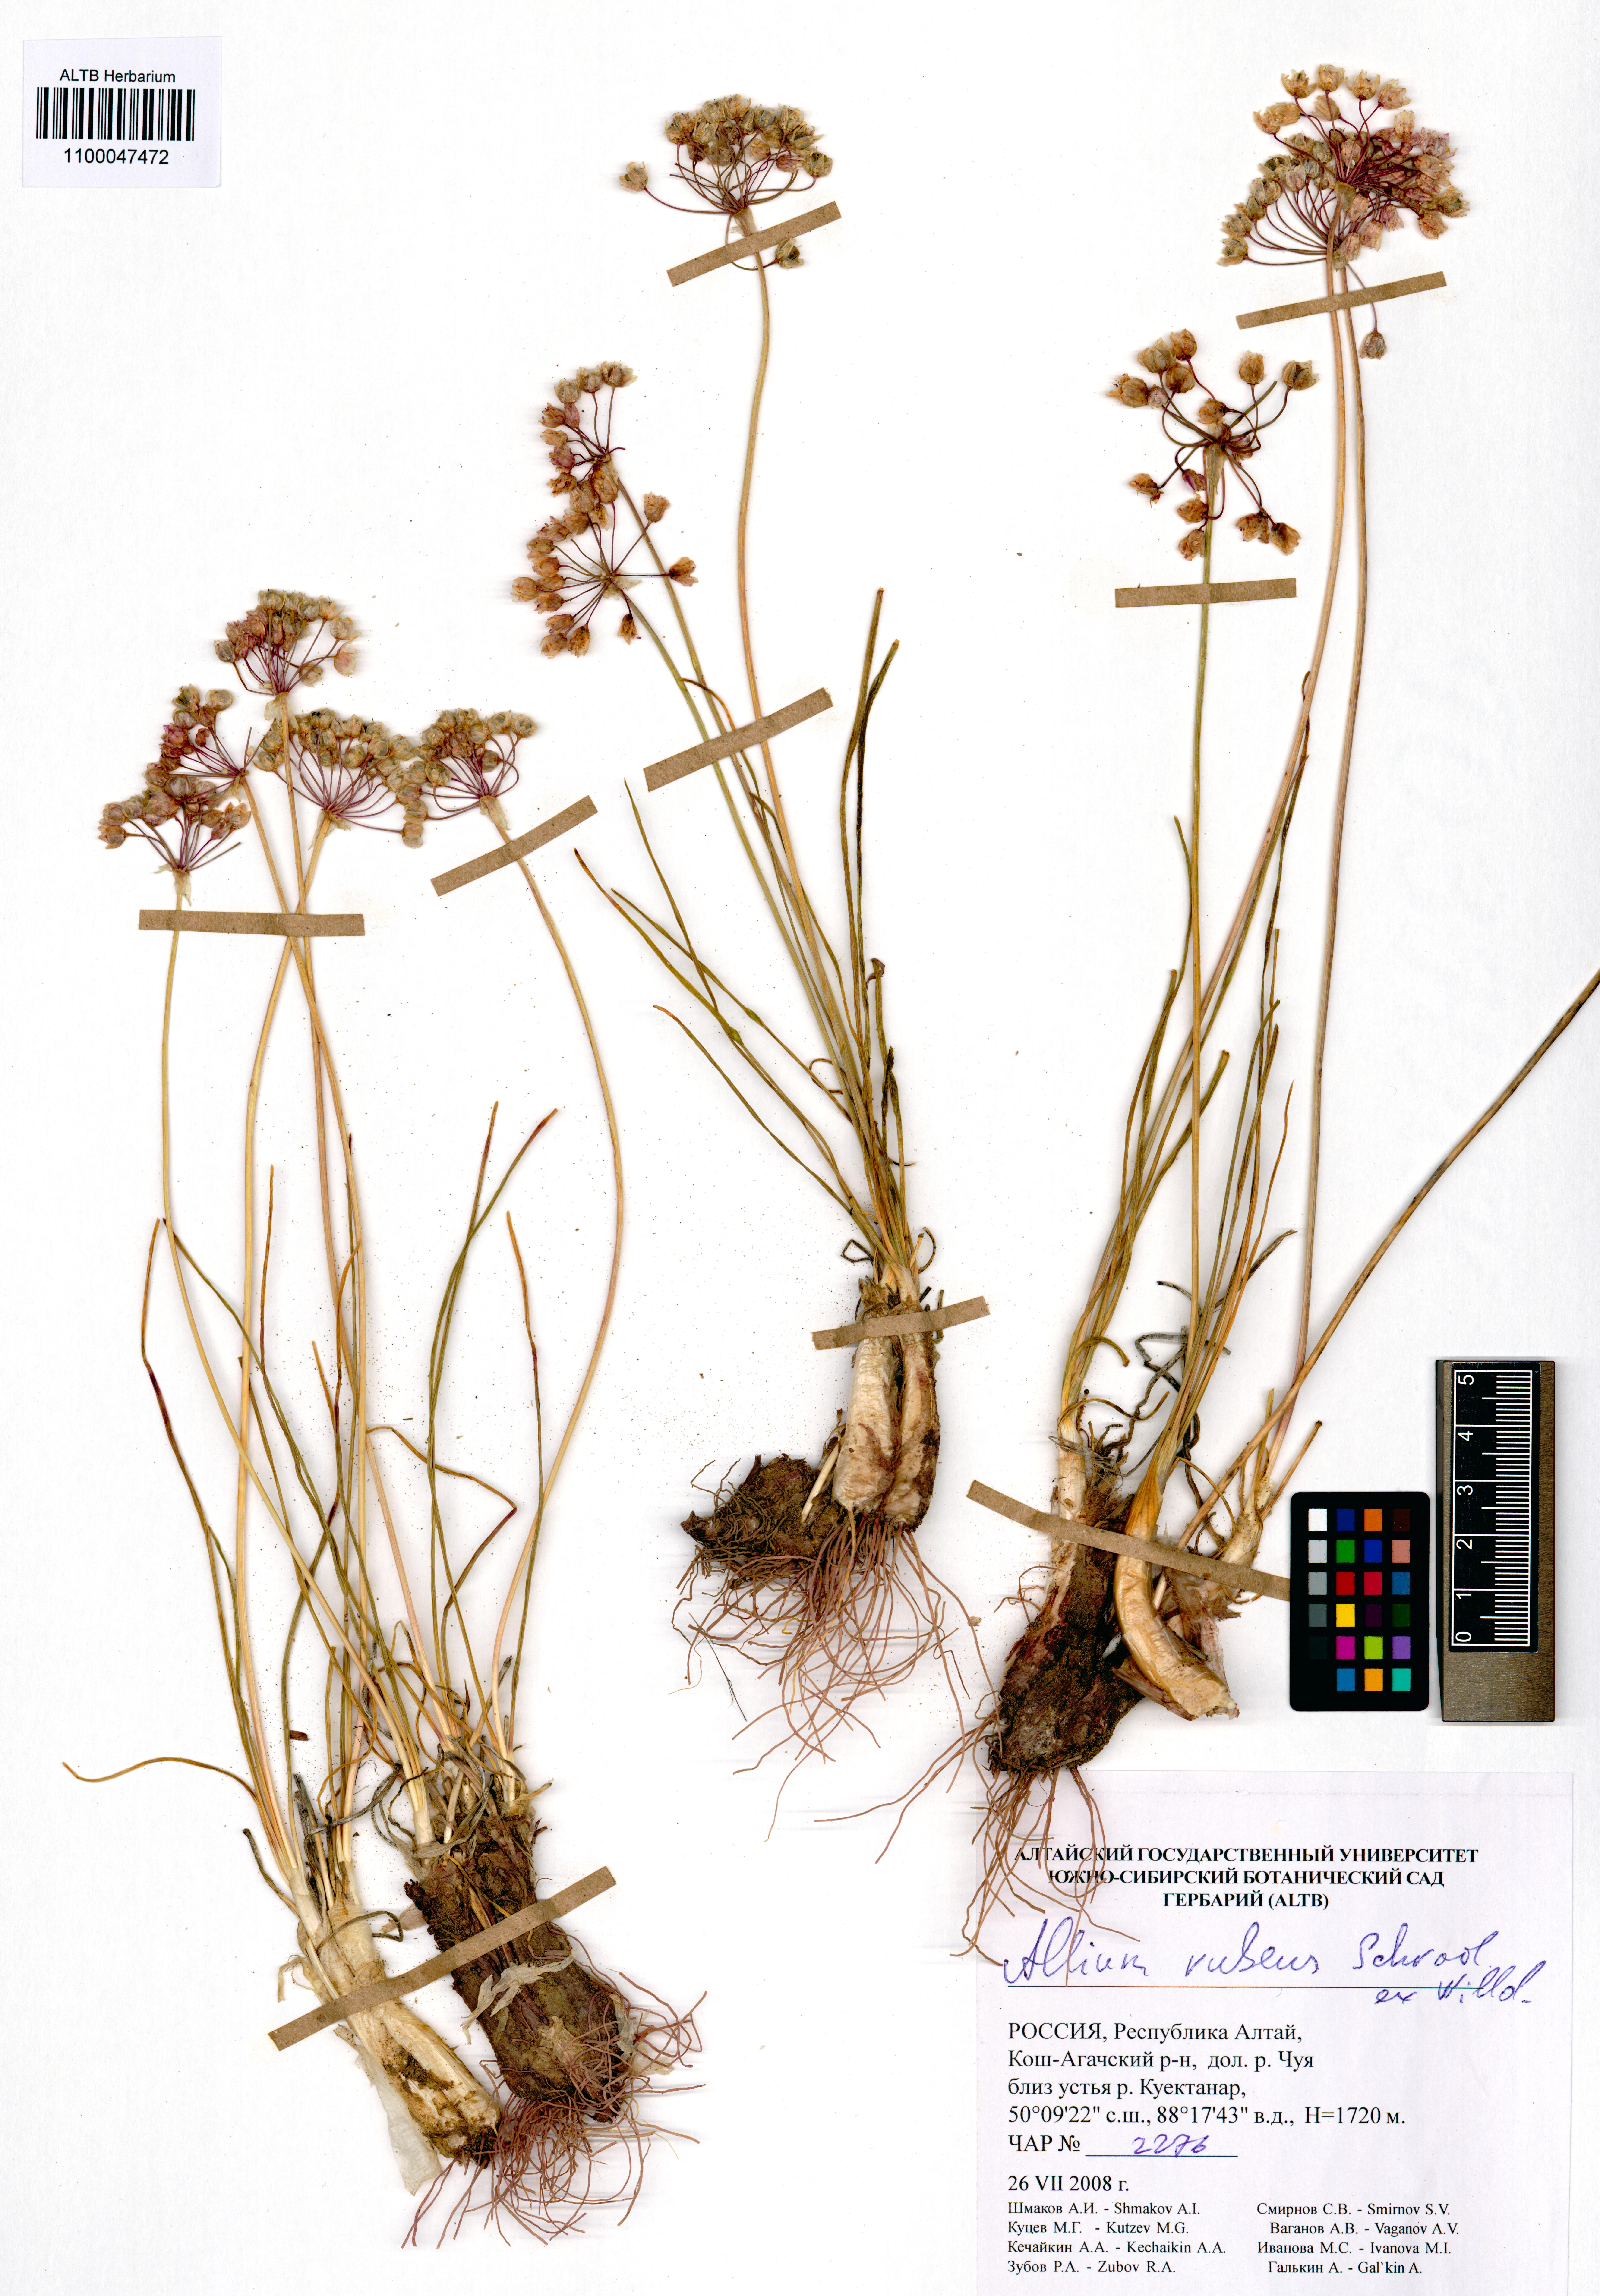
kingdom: Plantae
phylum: Tracheophyta
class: Liliopsida
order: Asparagales
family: Amaryllidaceae
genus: Allium
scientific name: Allium rubens
